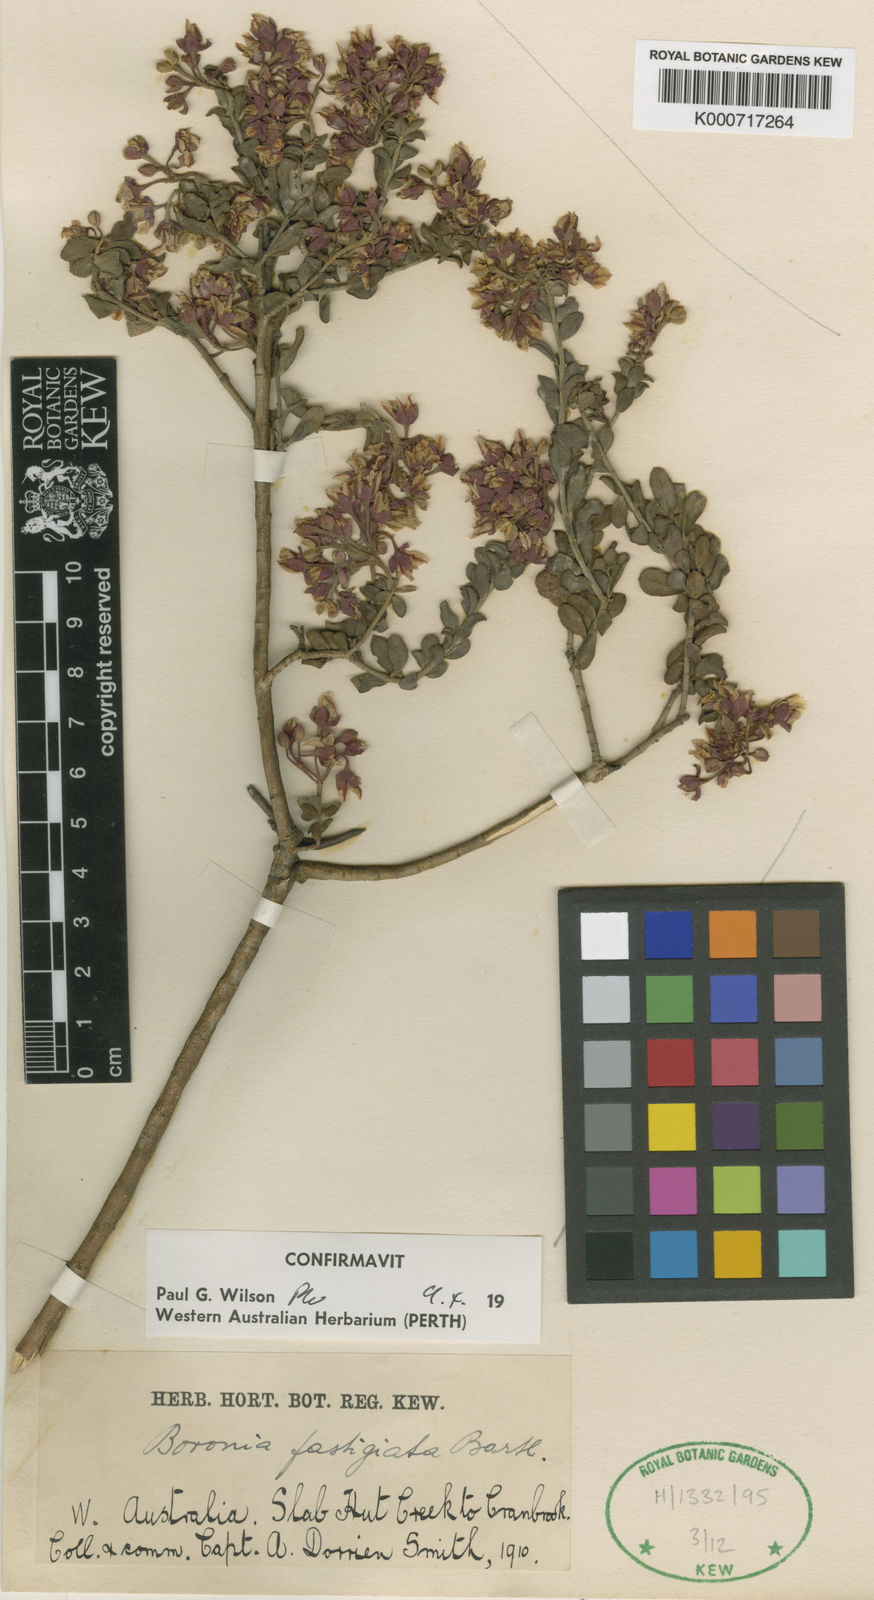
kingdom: Plantae
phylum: Tracheophyta
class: Magnoliopsida
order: Sapindales
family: Rutaceae
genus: Boronia
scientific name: Boronia fastigiata
